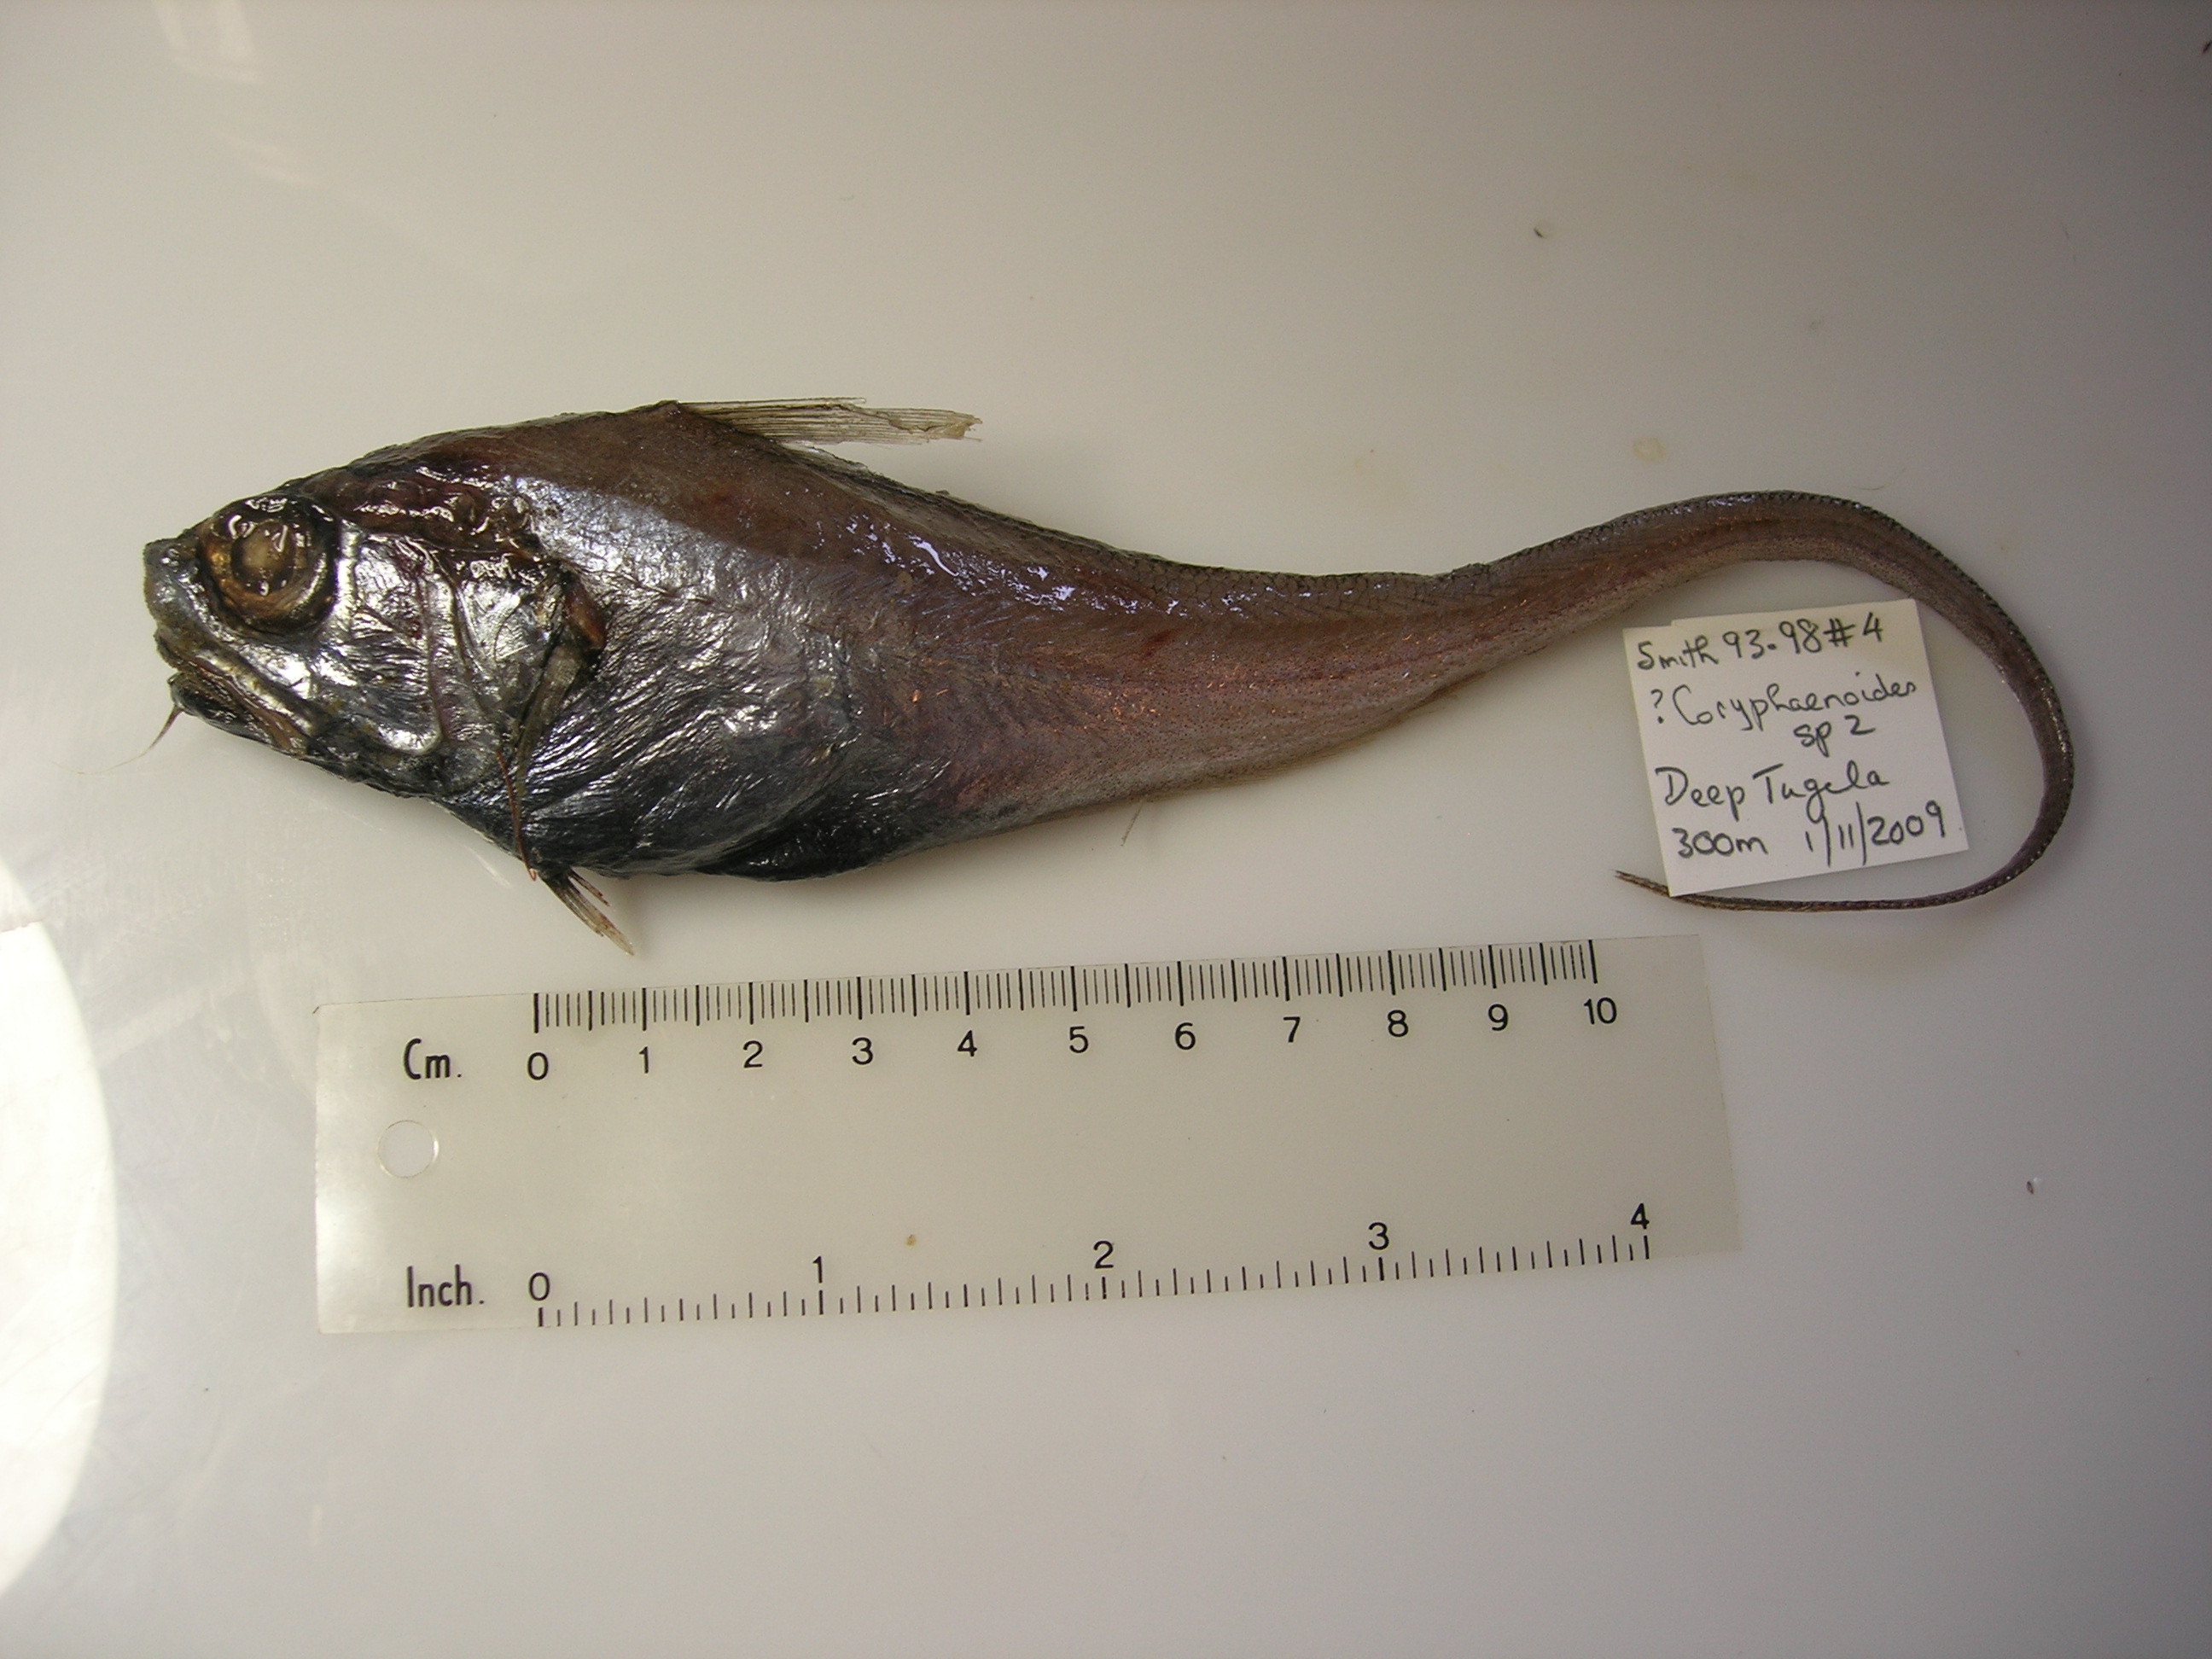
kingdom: Animalia
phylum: Chordata
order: Perciformes
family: Coryphaenidae
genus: Coryphaena
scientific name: Coryphaena
